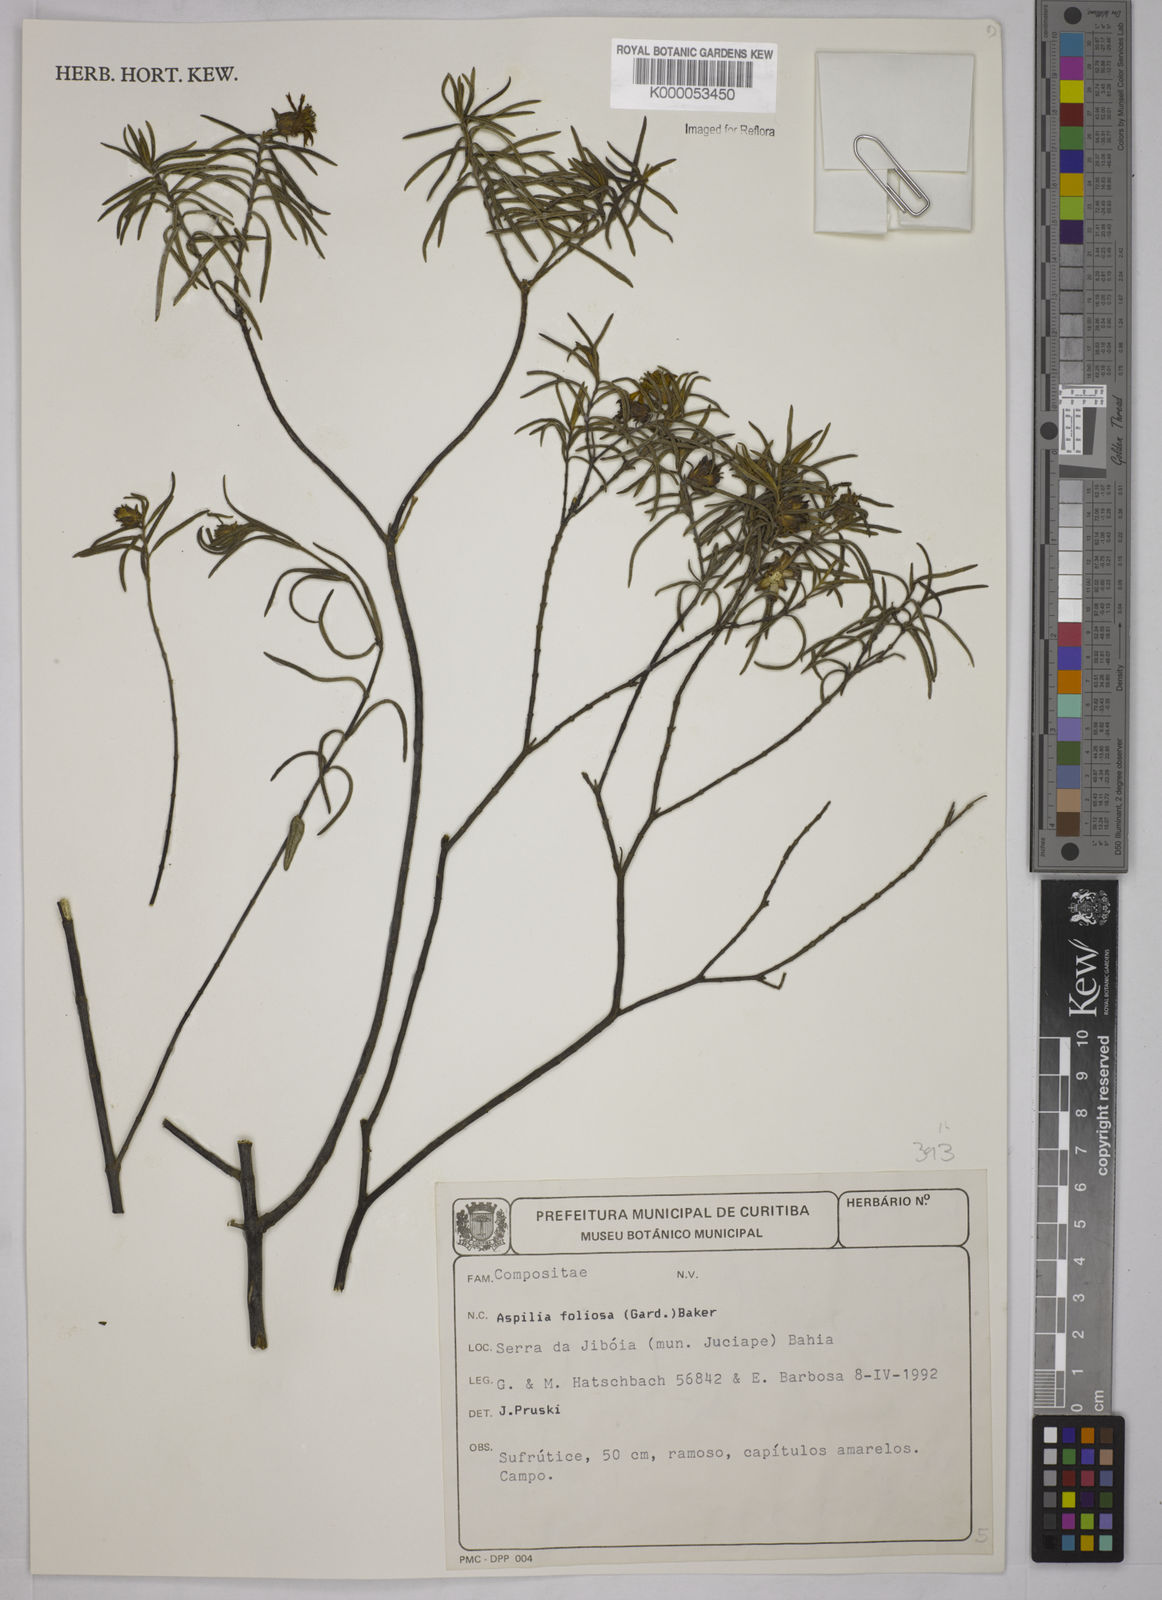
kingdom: Plantae
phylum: Tracheophyta
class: Magnoliopsida
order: Asterales
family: Asteraceae
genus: Aspilia
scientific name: Aspilia
